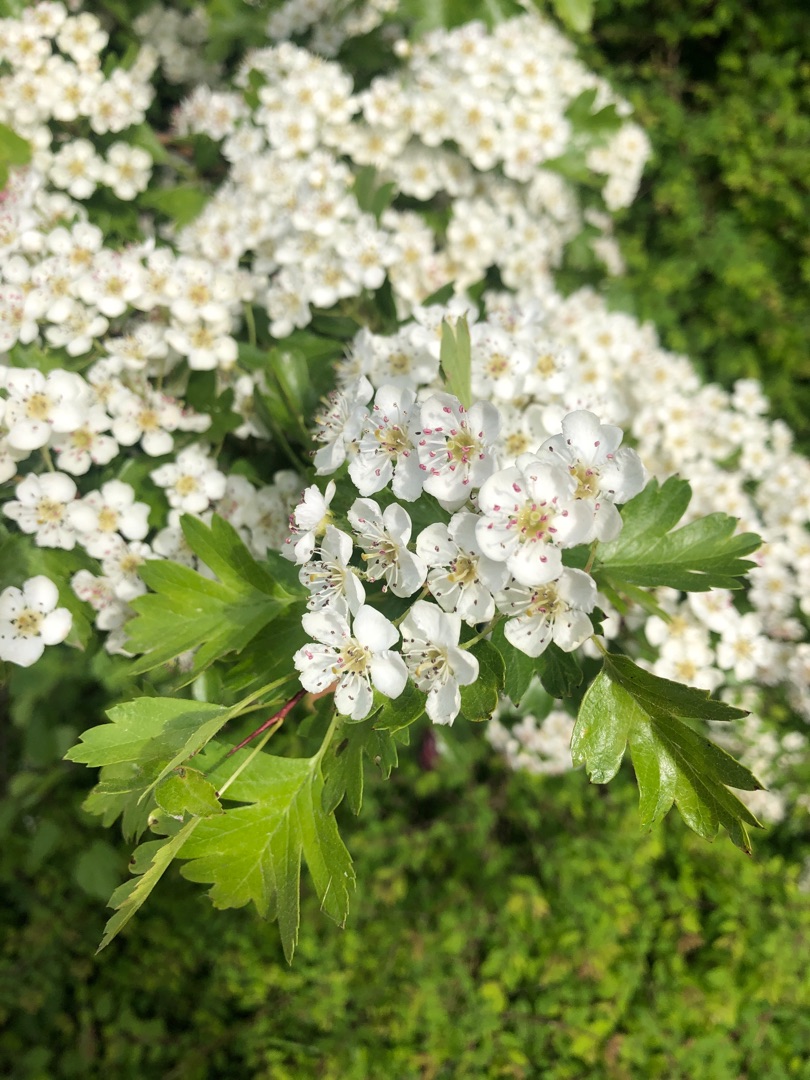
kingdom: Plantae
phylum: Tracheophyta
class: Magnoliopsida
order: Rosales
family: Rosaceae
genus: Crataegus
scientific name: Crataegus monogyna
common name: Engriflet hvidtjørn
